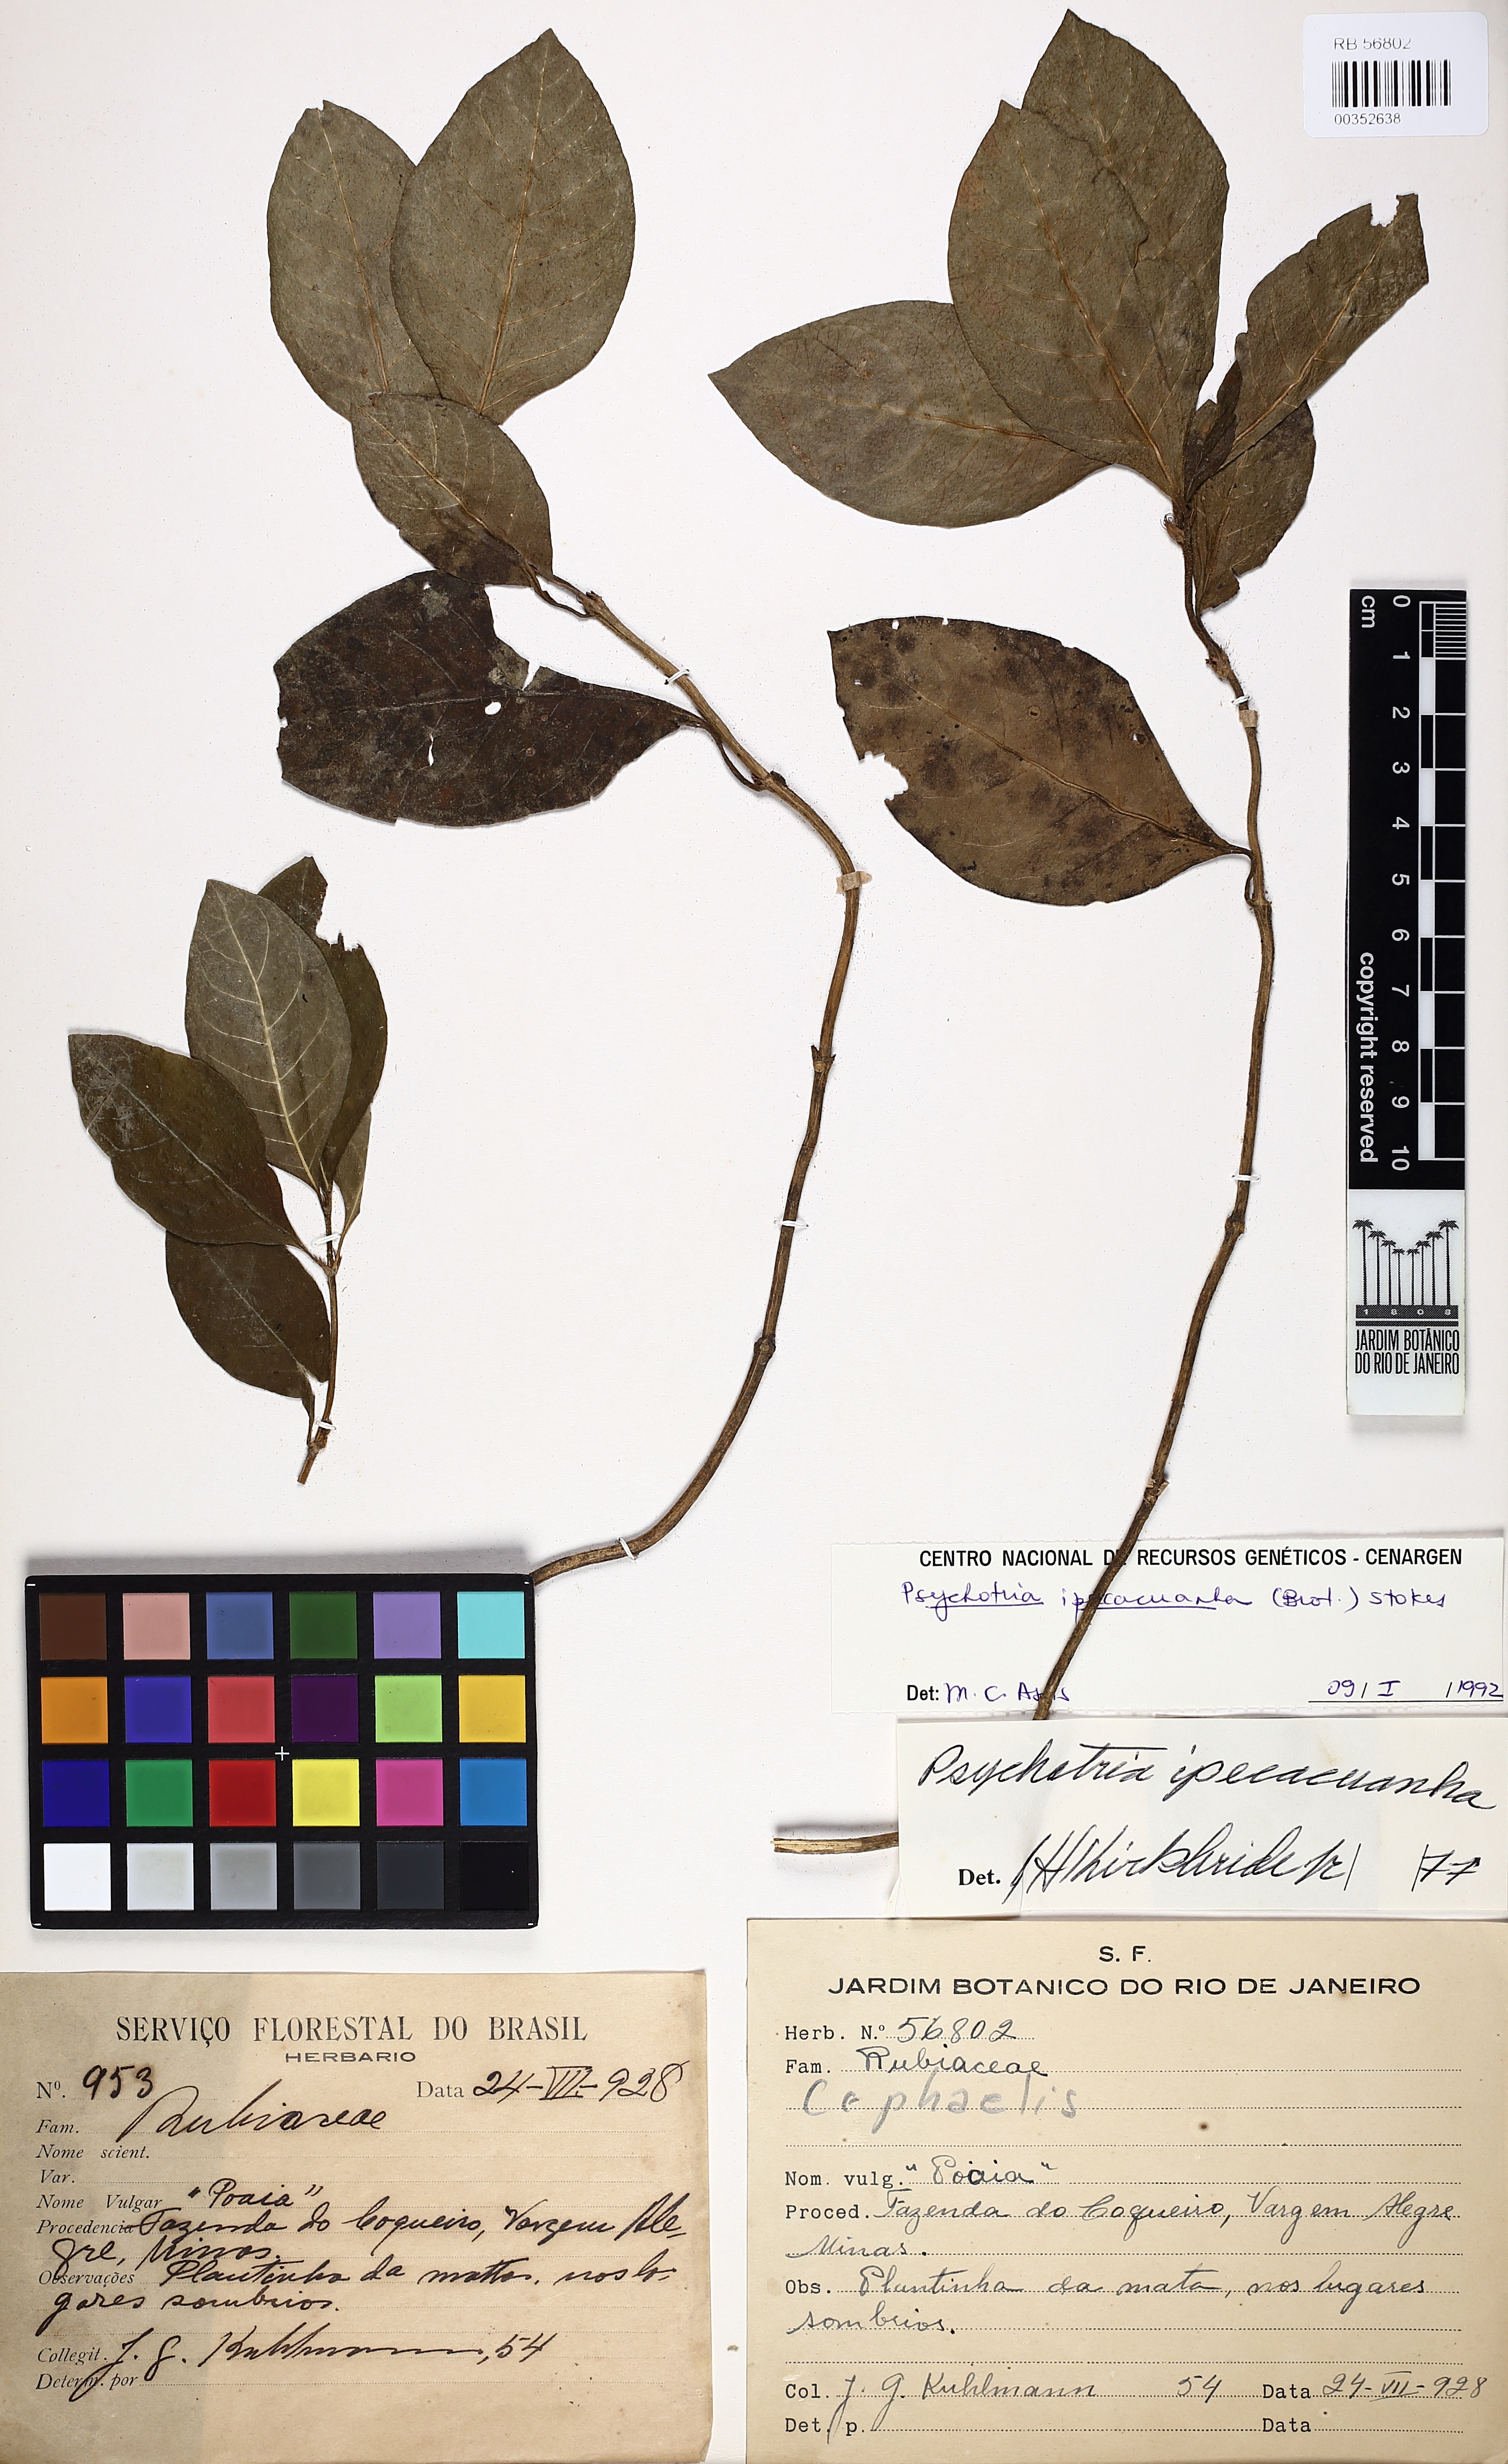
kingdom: Plantae
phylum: Tracheophyta
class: Magnoliopsida
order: Gentianales
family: Rubiaceae
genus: Carapichea
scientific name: Carapichea ipecacuanha
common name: Ipecac
